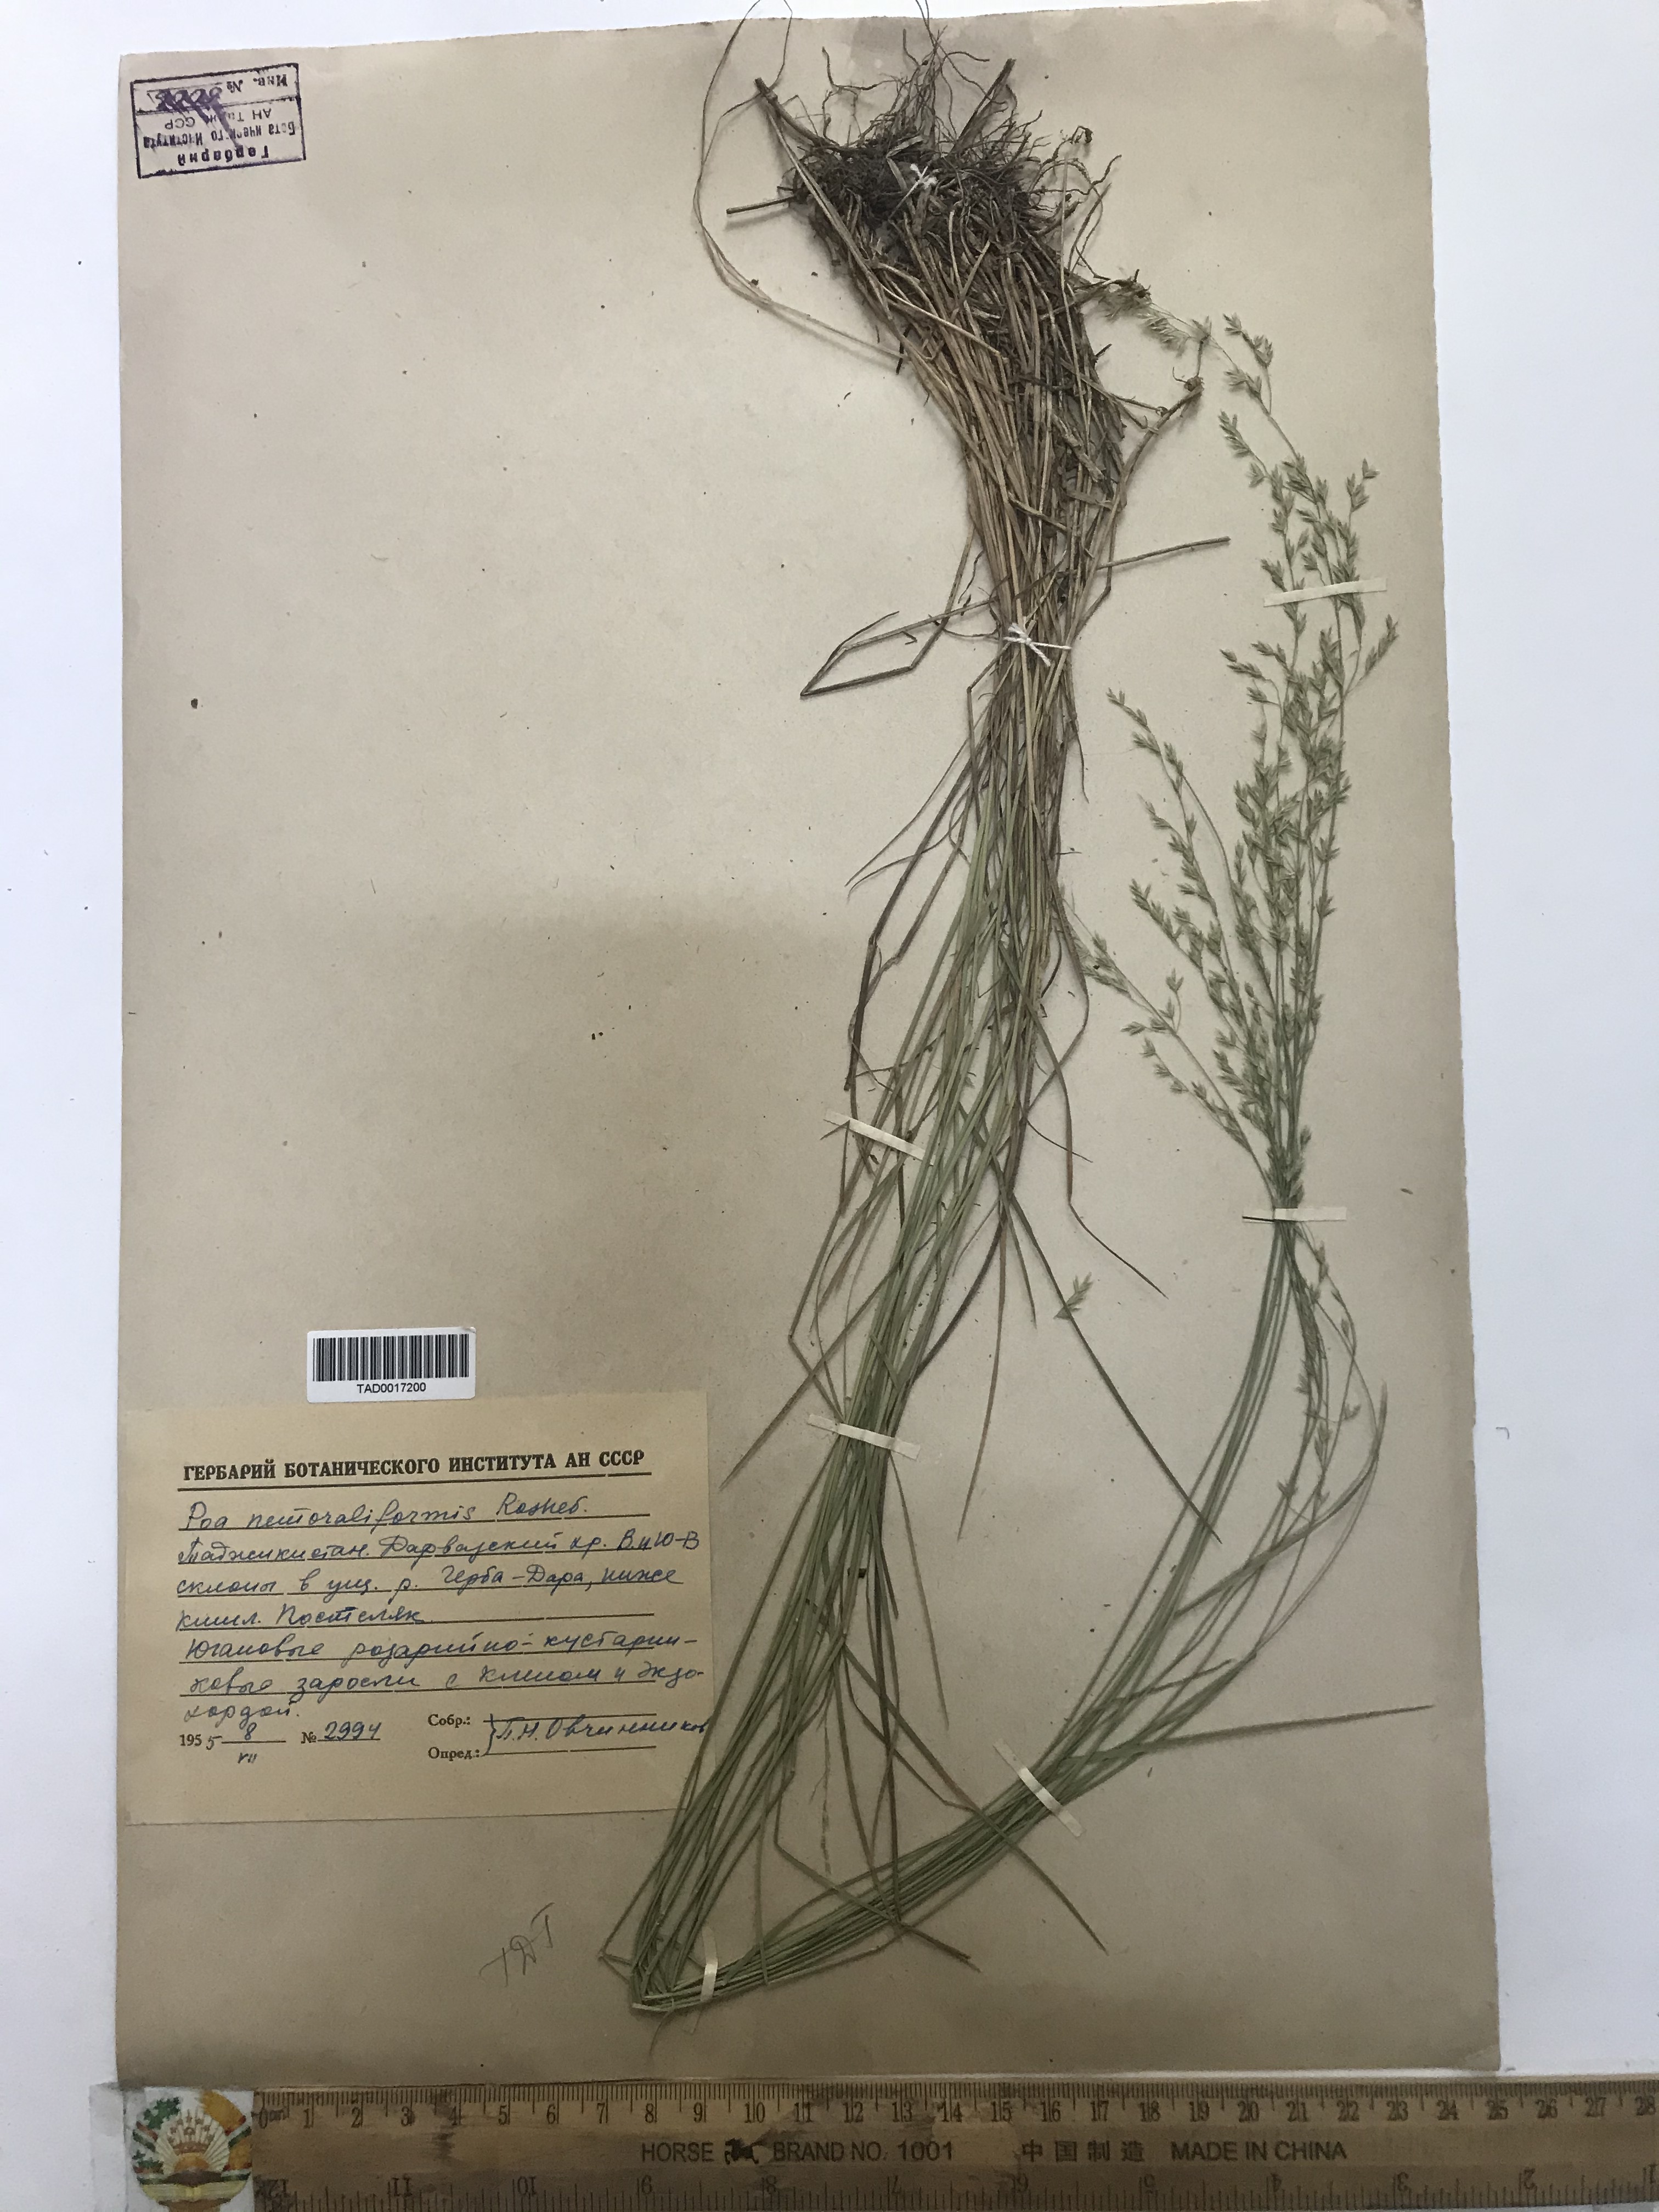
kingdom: Plantae
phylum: Tracheophyta
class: Liliopsida
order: Poales
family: Poaceae
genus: Poa
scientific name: Poa urssulensis
